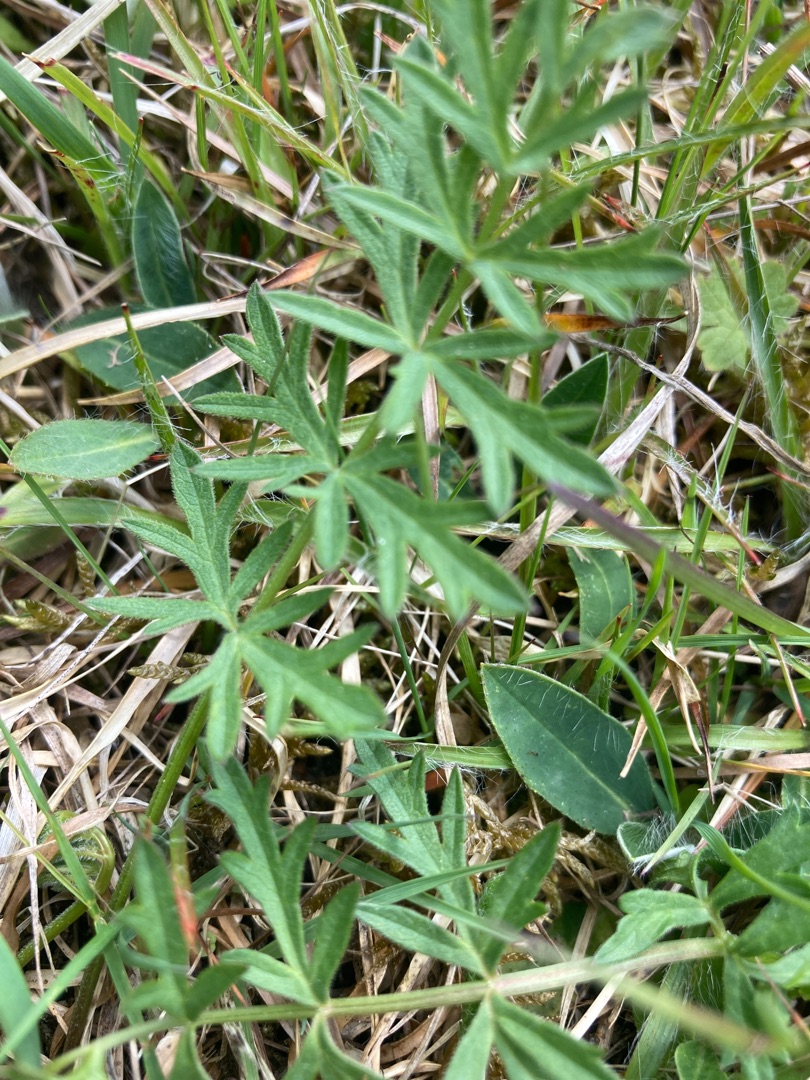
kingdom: Plantae
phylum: Tracheophyta
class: Magnoliopsida
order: Apiales
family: Apiaceae
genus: Pimpinella
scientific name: Pimpinella saxifraga
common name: Almindelig pimpinelle
